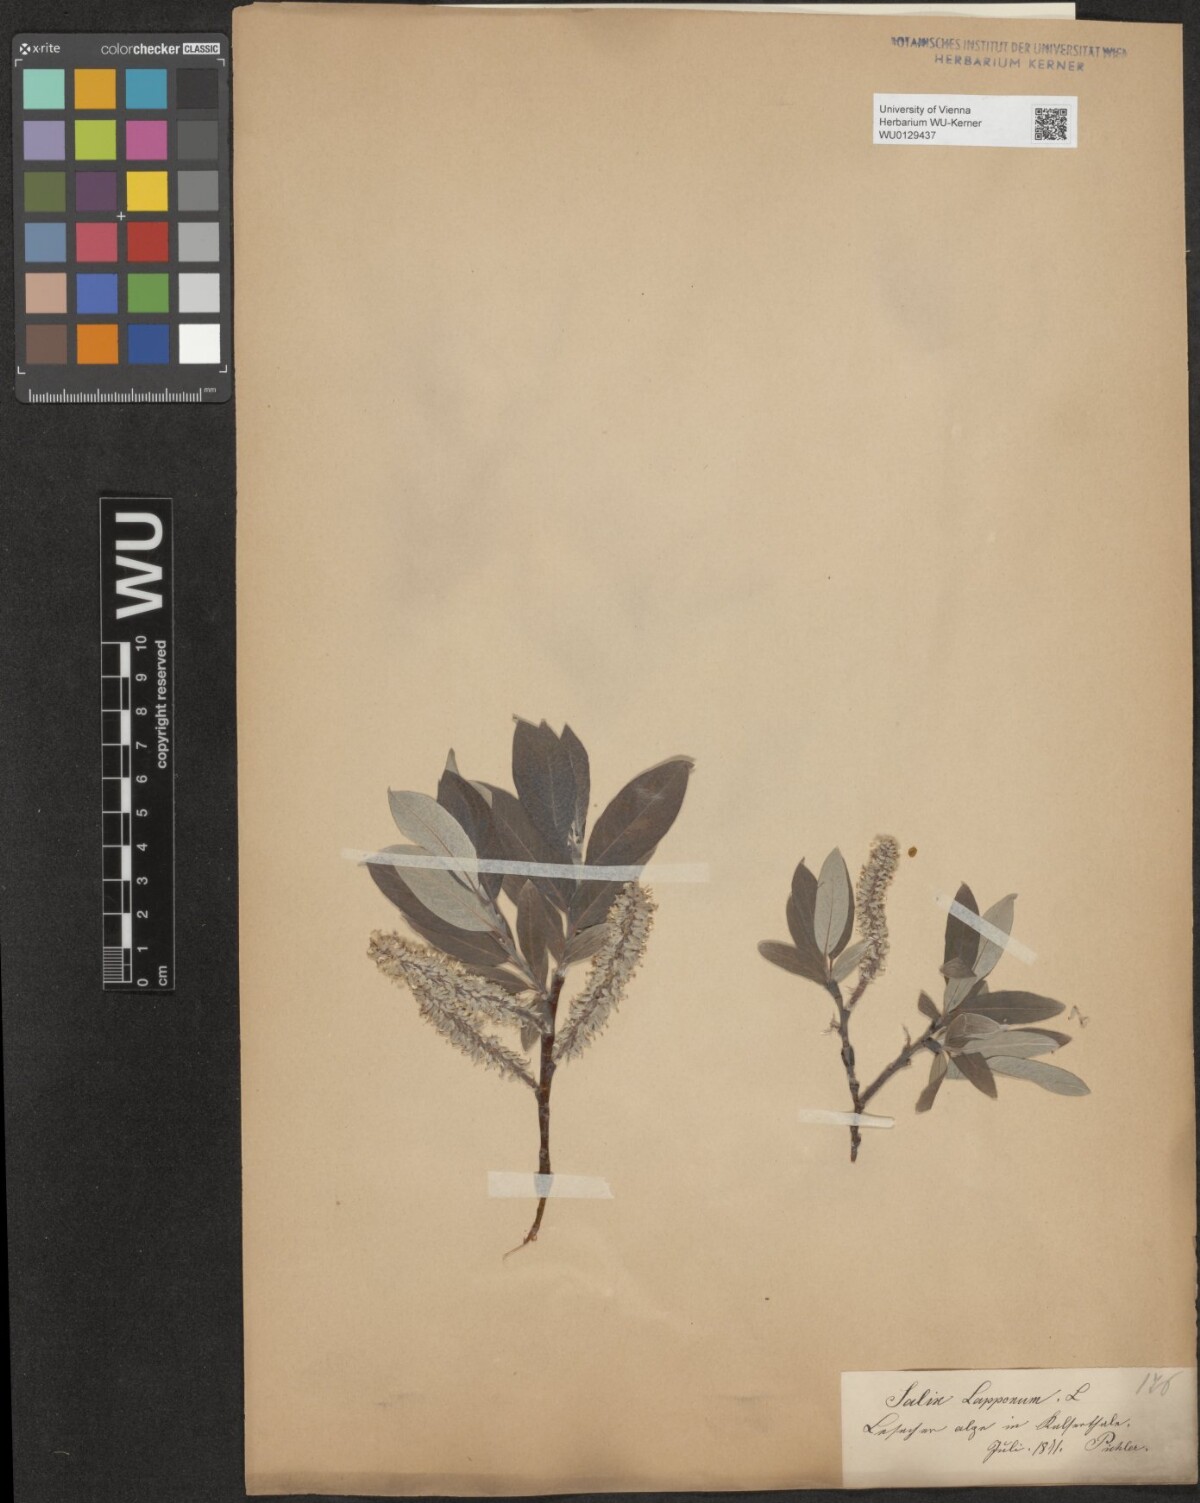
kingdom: Plantae
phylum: Tracheophyta
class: Magnoliopsida
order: Malpighiales
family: Salicaceae
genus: Salix
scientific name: Salix helvetica
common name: Swiss willow
